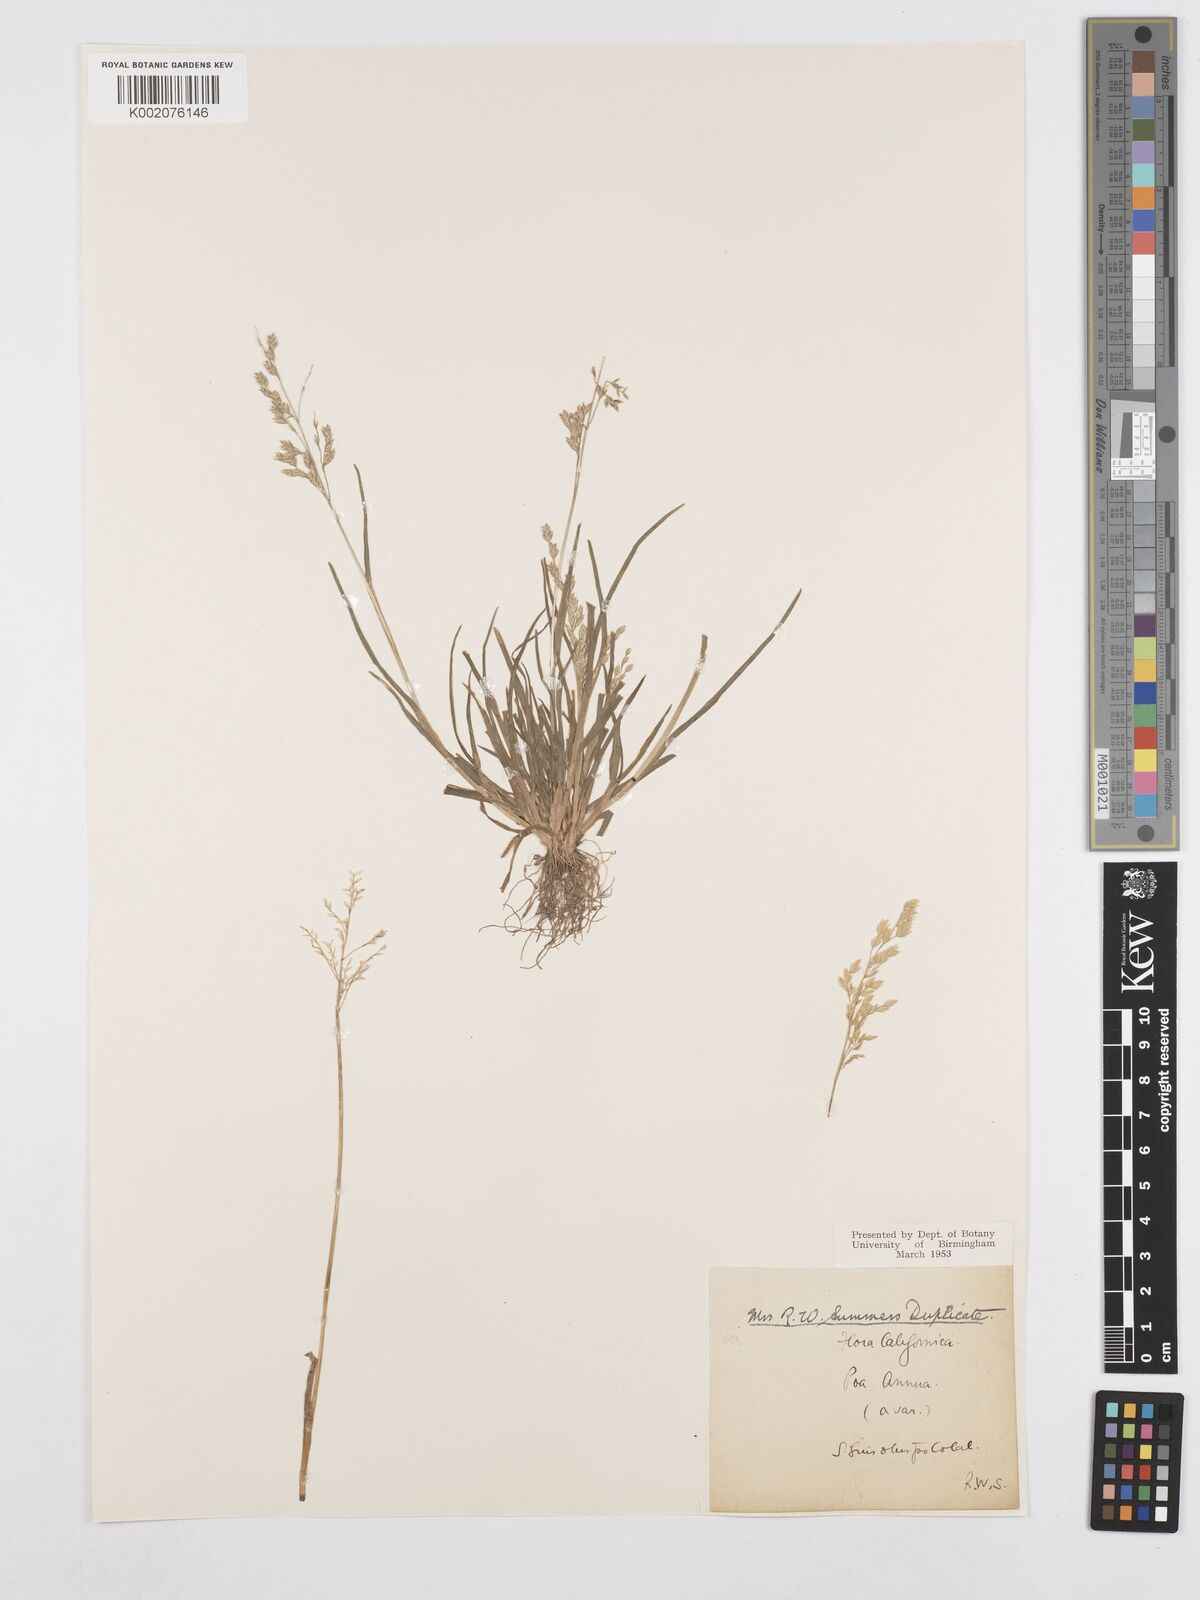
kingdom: Plantae
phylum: Tracheophyta
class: Liliopsida
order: Poales
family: Poaceae
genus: Poa
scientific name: Poa annua
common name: Annual bluegrass
